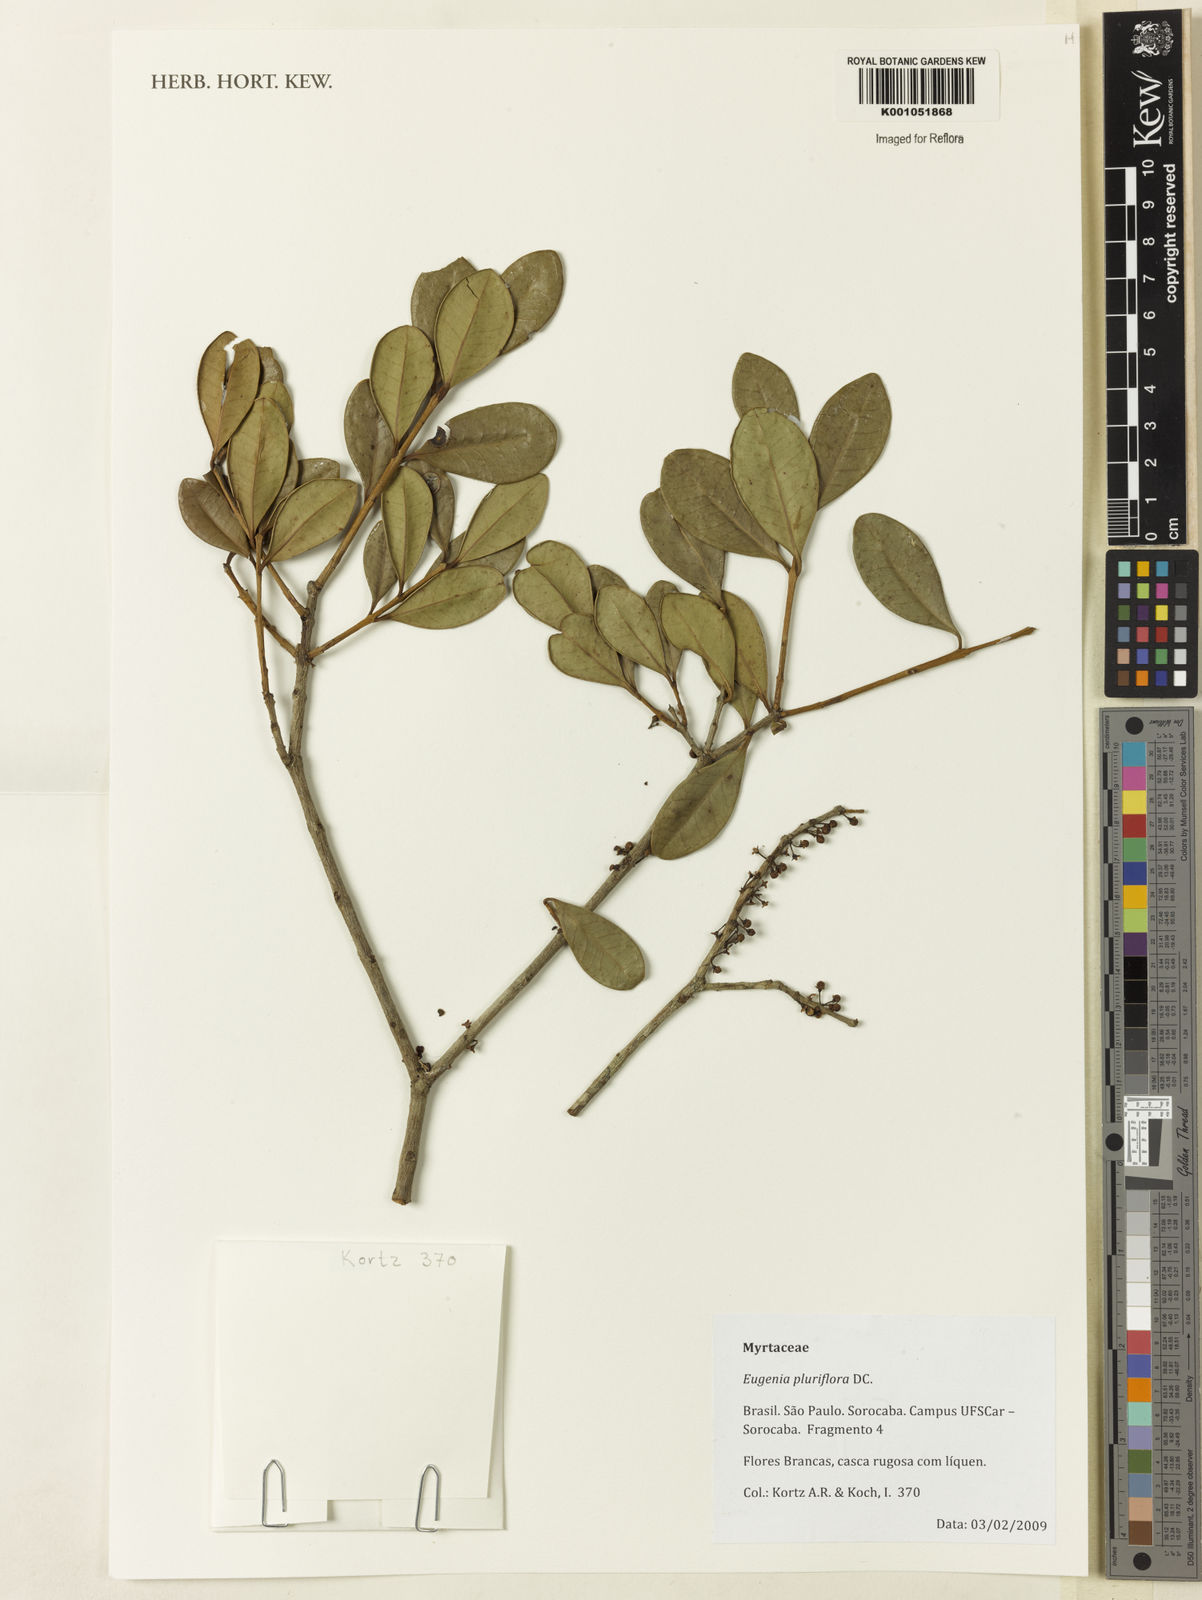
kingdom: Plantae
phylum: Tracheophyta
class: Magnoliopsida
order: Myrtales
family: Myrtaceae
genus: Eugenia
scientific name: Eugenia pluriflora
